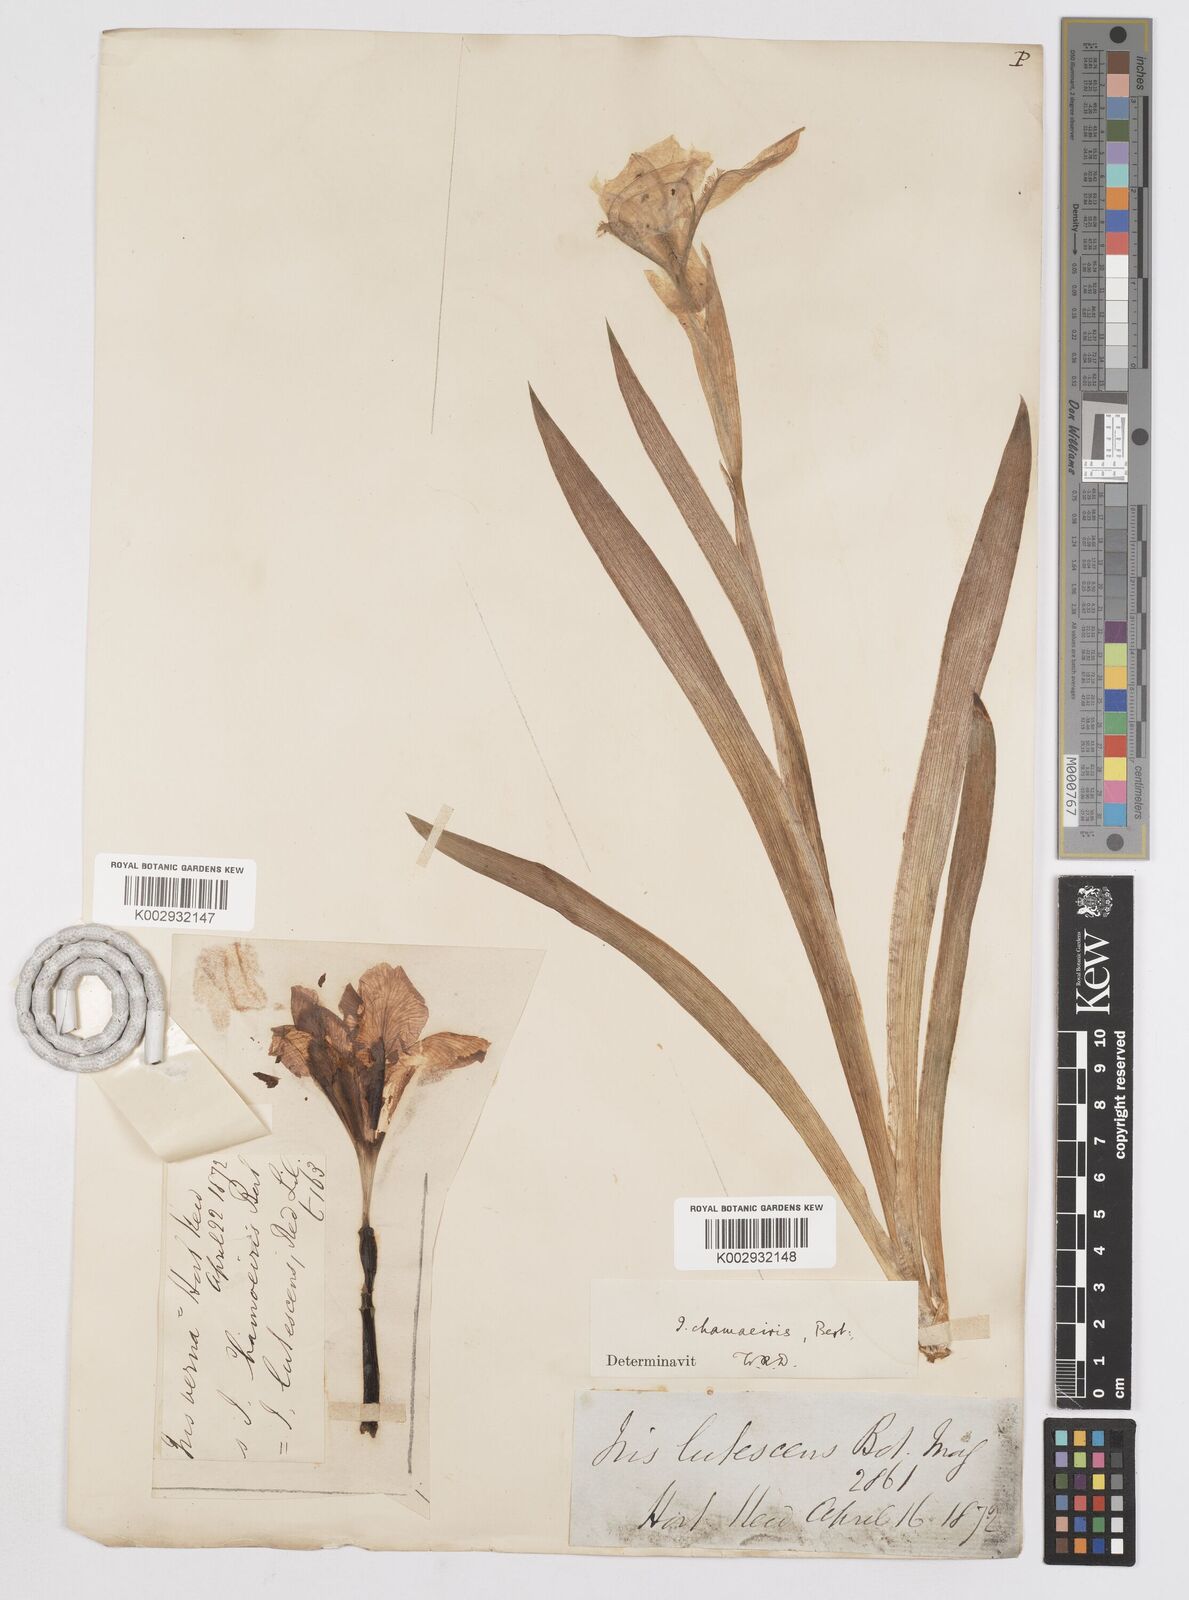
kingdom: Plantae
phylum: Tracheophyta
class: Liliopsida
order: Asparagales
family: Iridaceae
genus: Iris
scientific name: Iris lutescens
